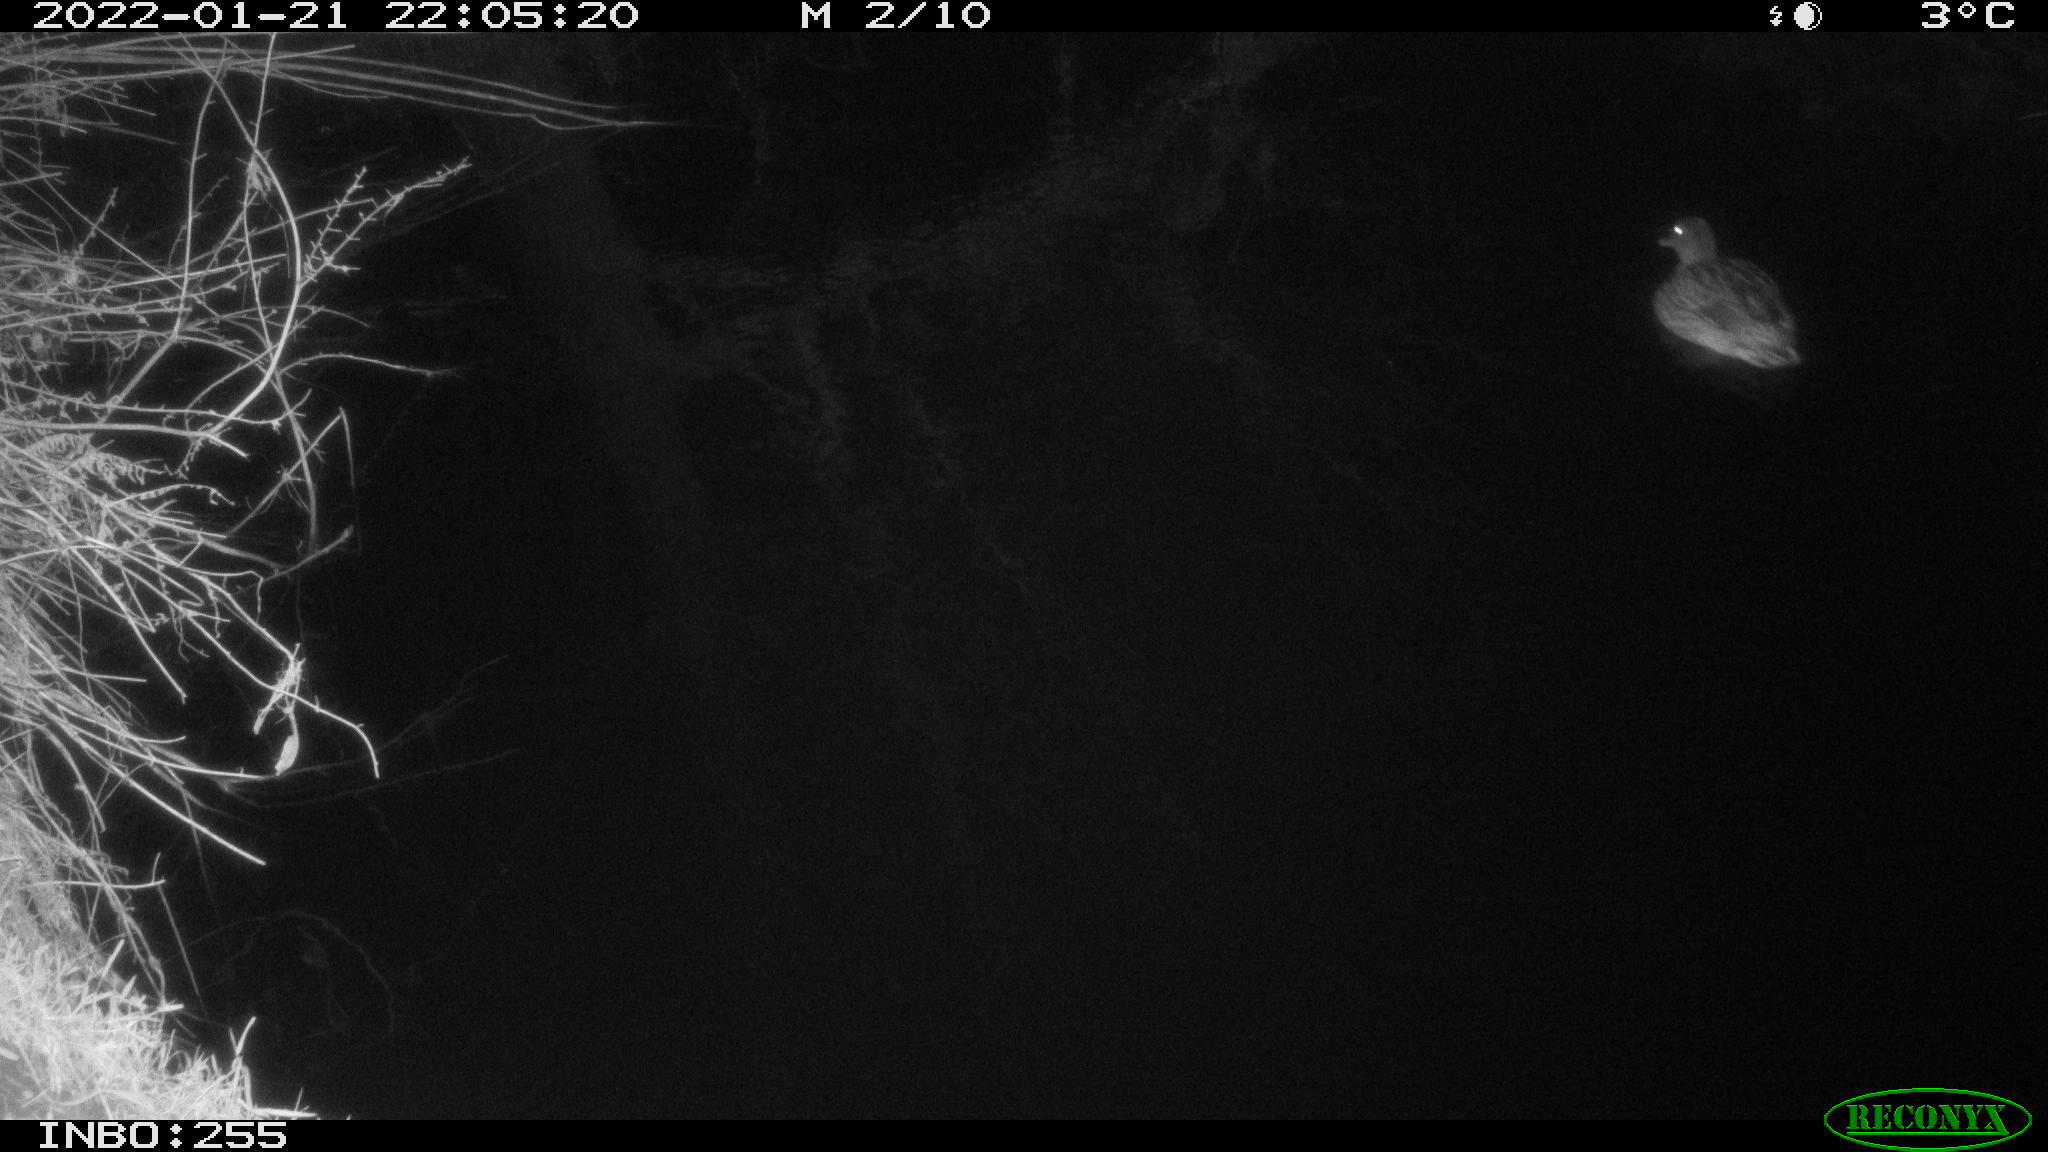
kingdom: Animalia
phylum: Chordata
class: Aves
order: Anseriformes
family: Anatidae
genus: Anas
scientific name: Anas
